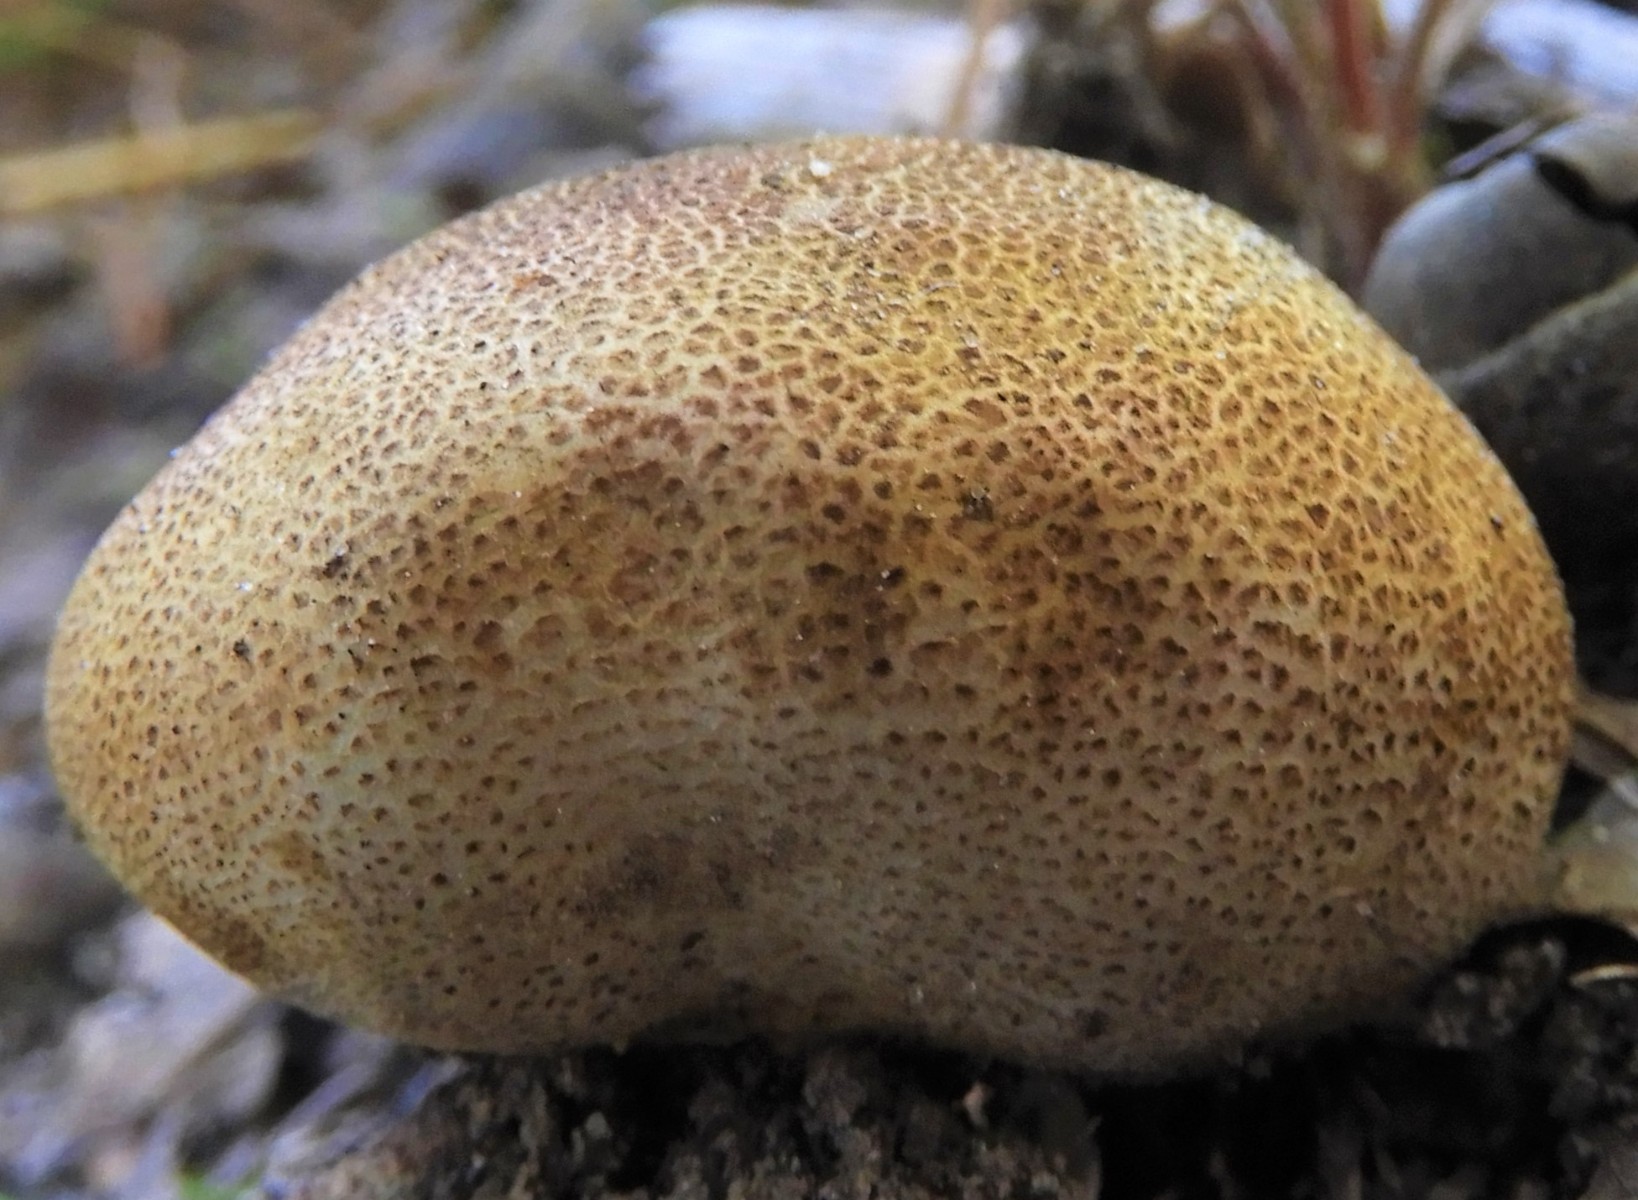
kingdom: Fungi
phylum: Basidiomycota
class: Agaricomycetes
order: Boletales
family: Sclerodermataceae
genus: Scleroderma
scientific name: Scleroderma citrinum
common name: almindelig bruskbold
